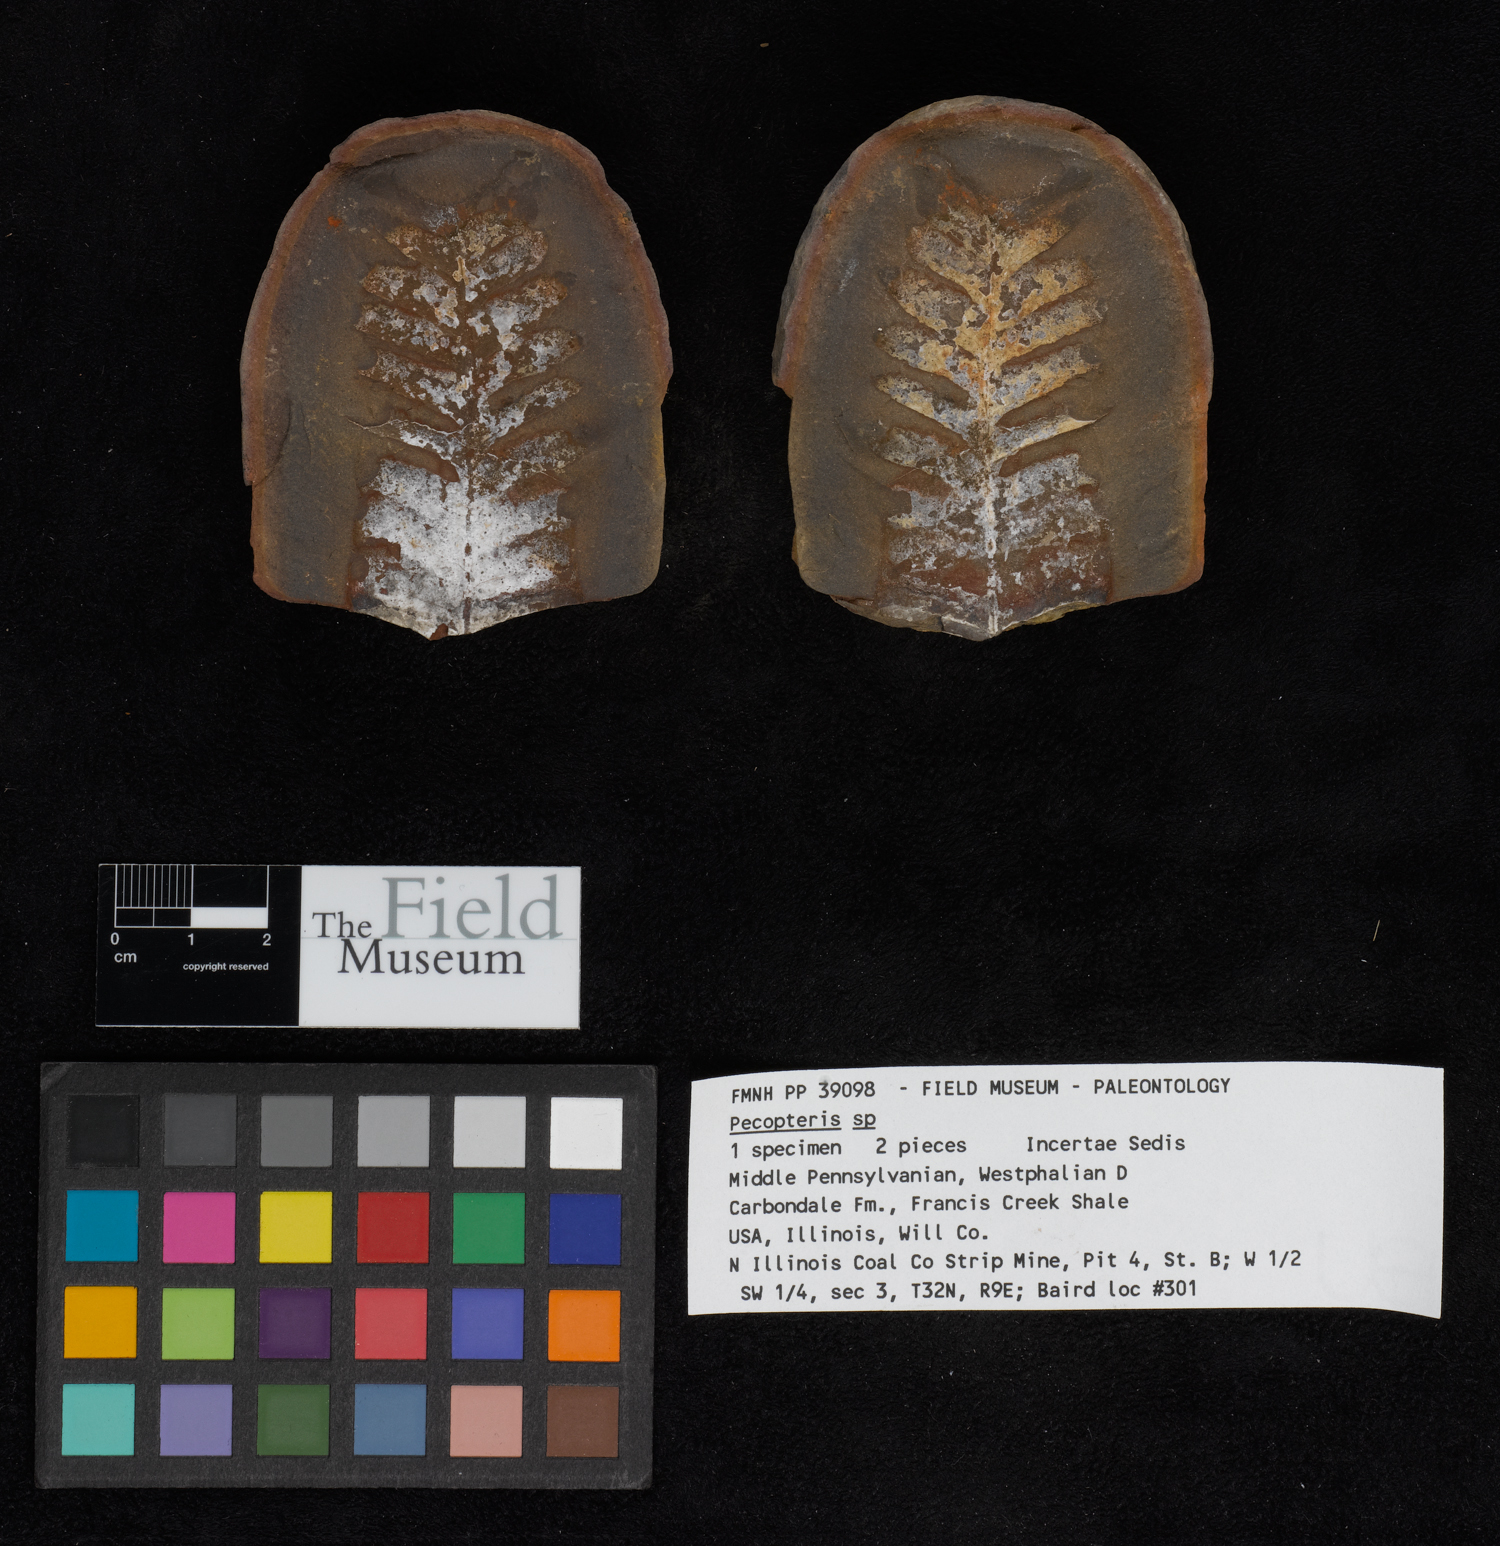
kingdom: Plantae
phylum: Tracheophyta
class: Polypodiopsida
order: Marattiales
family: Asterothecaceae
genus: Pecopteris
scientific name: Pecopteris
